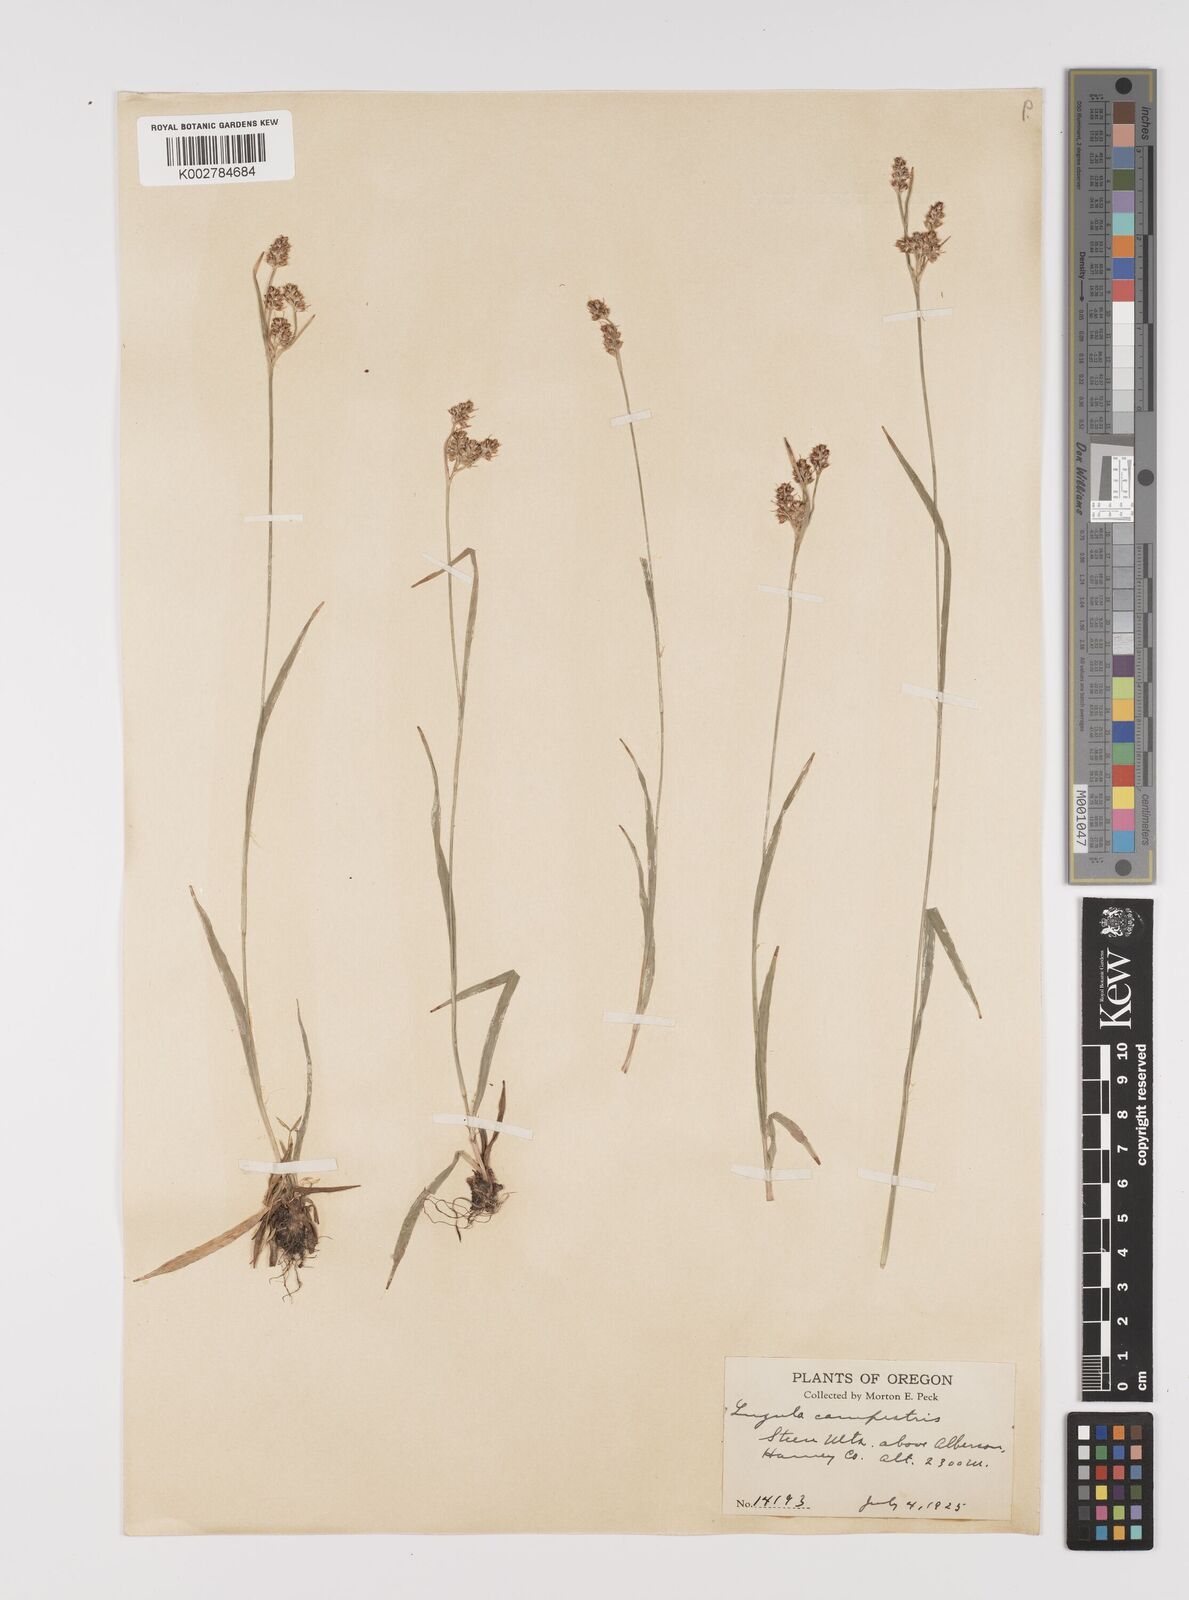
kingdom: Plantae
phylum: Tracheophyta
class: Liliopsida
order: Poales
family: Juncaceae
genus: Luzula
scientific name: Luzula campestris
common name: Field wood-rush
